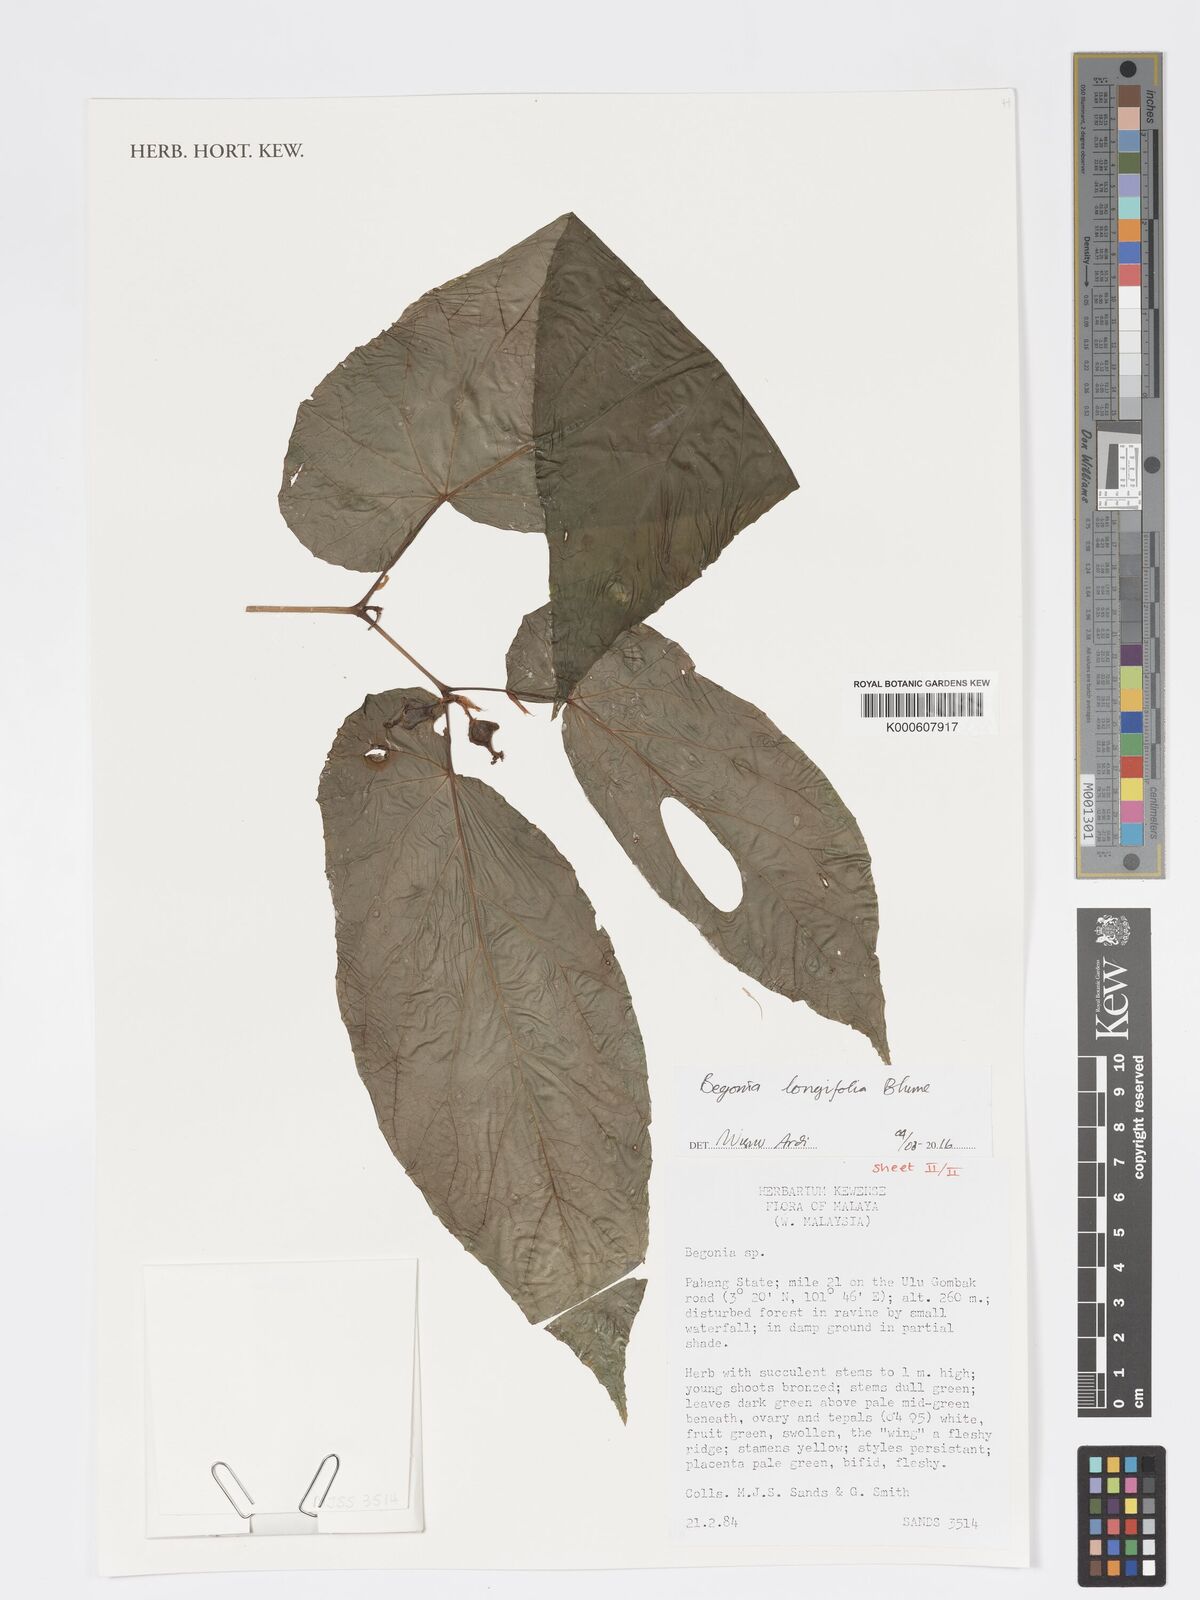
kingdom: Plantae
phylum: Tracheophyta
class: Magnoliopsida
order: Cucurbitales
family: Begoniaceae
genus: Begonia
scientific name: Begonia longifolia
